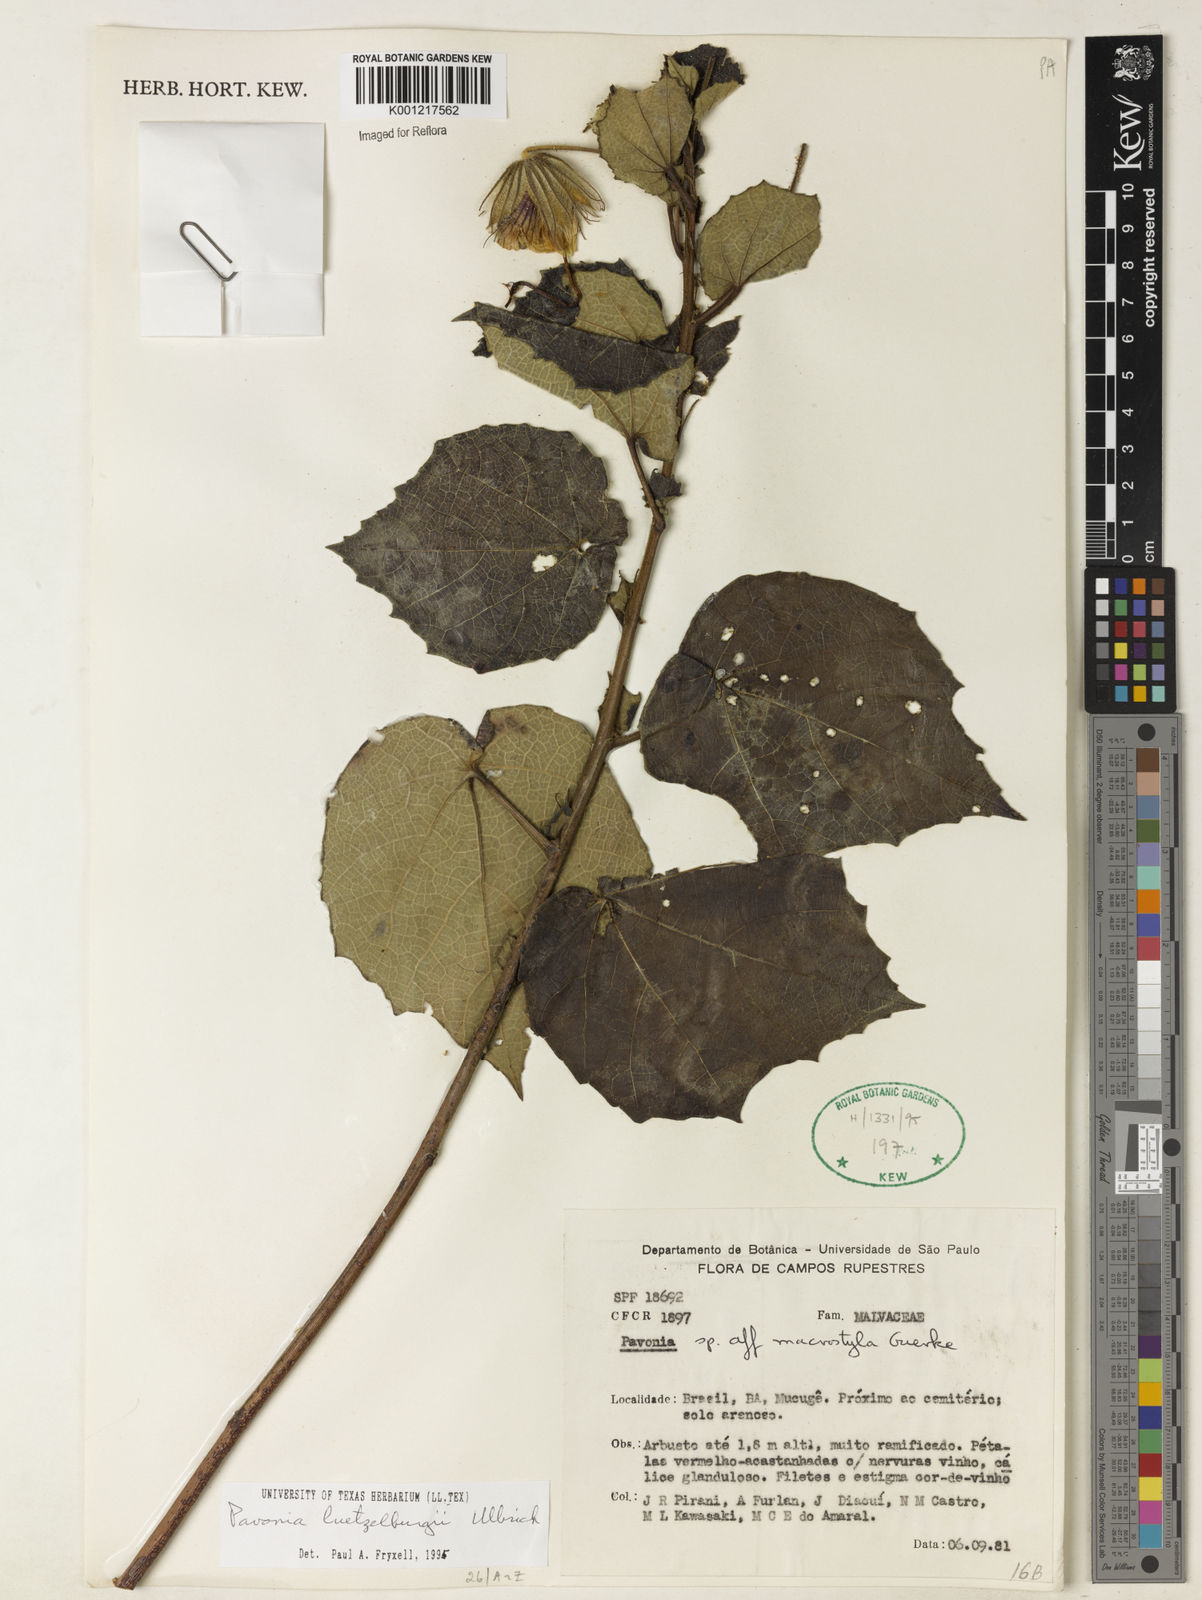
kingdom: Plantae
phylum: Tracheophyta
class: Magnoliopsida
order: Malvales
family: Malvaceae
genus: Pavonia
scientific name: Pavonia luetzelburgii
